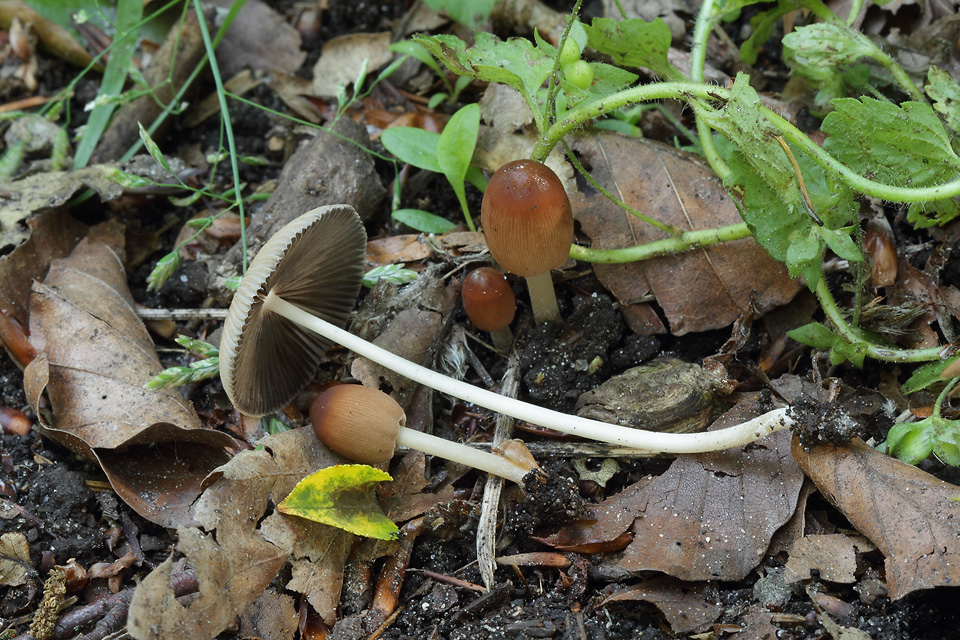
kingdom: Fungi
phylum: Basidiomycota
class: Agaricomycetes
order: Agaricales
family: Psathyrellaceae
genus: Parasola
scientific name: Parasola auricoma
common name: hansens hjulhat
